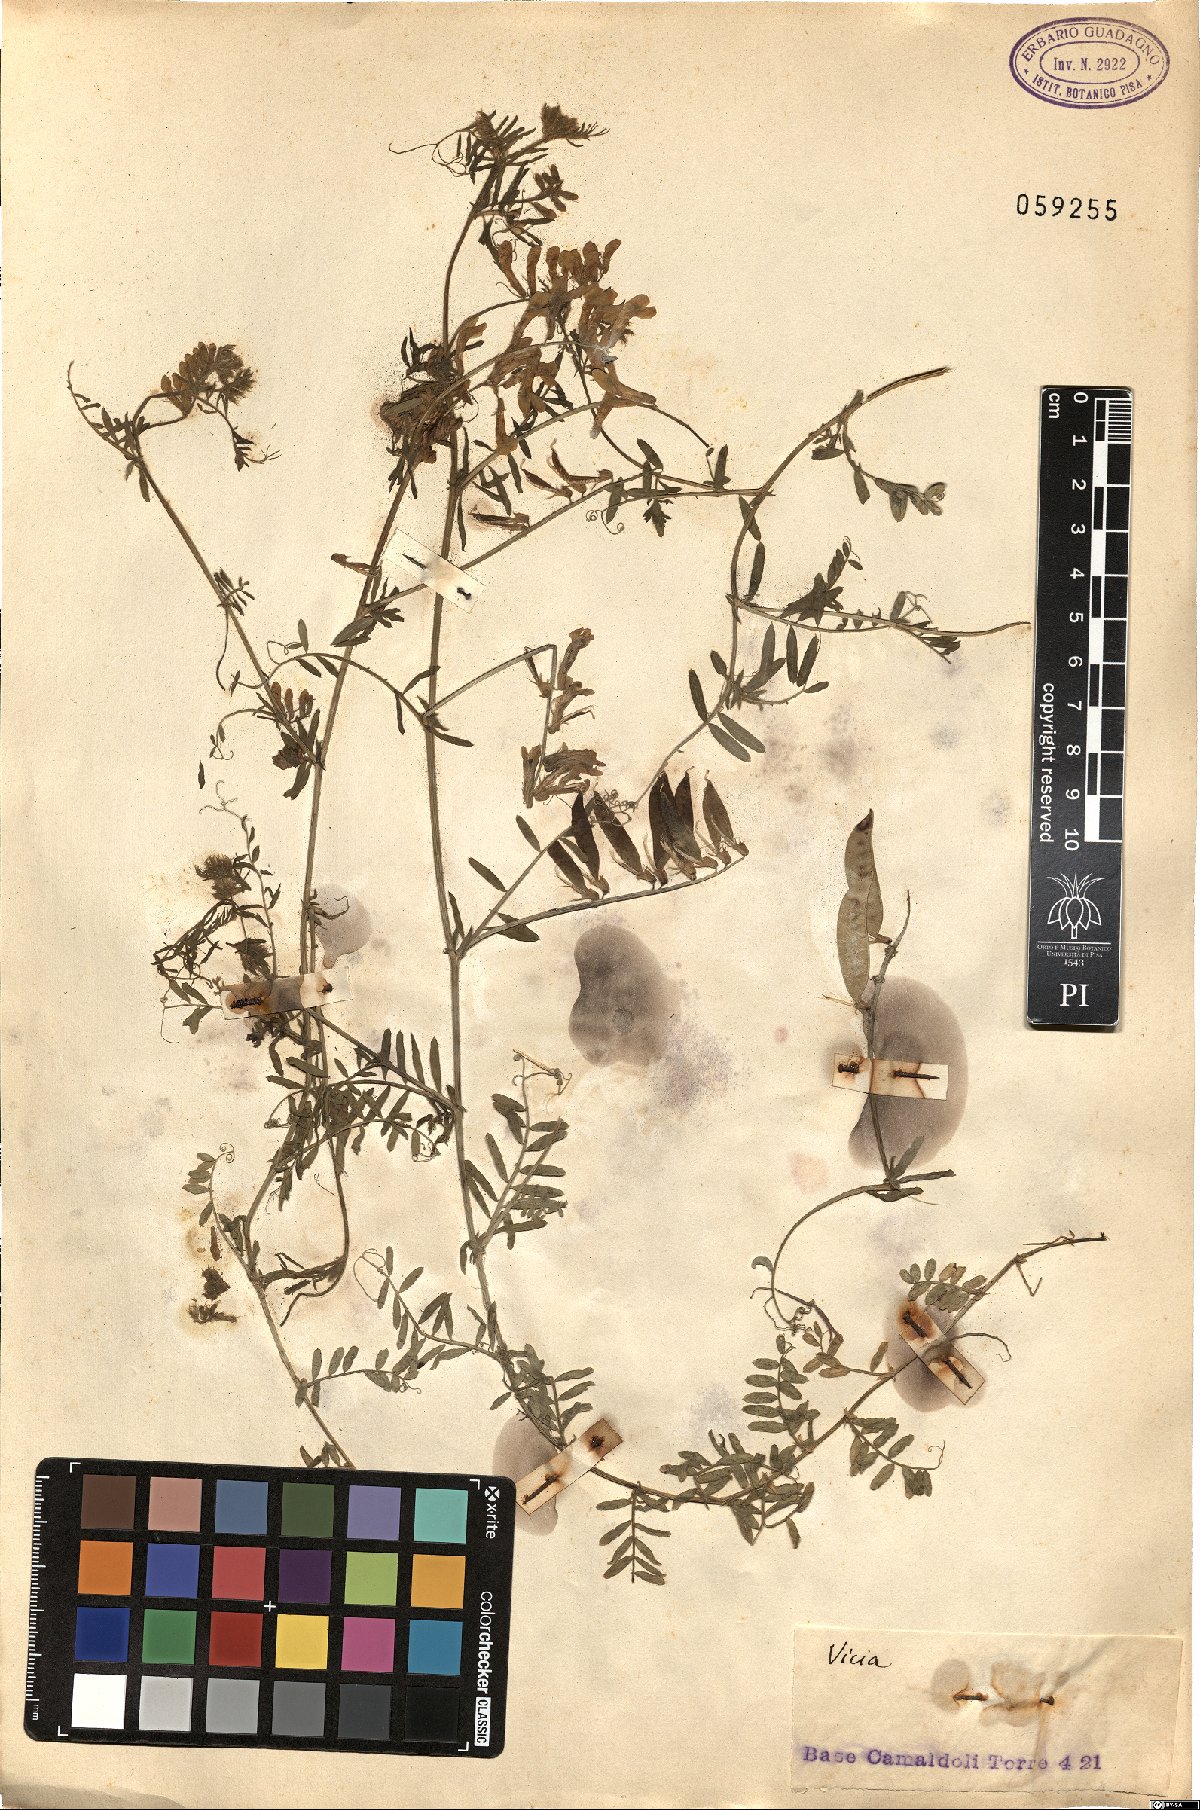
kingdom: Plantae
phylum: Tracheophyta
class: Magnoliopsida
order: Fabales
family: Fabaceae
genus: Vicia
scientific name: Vicia
